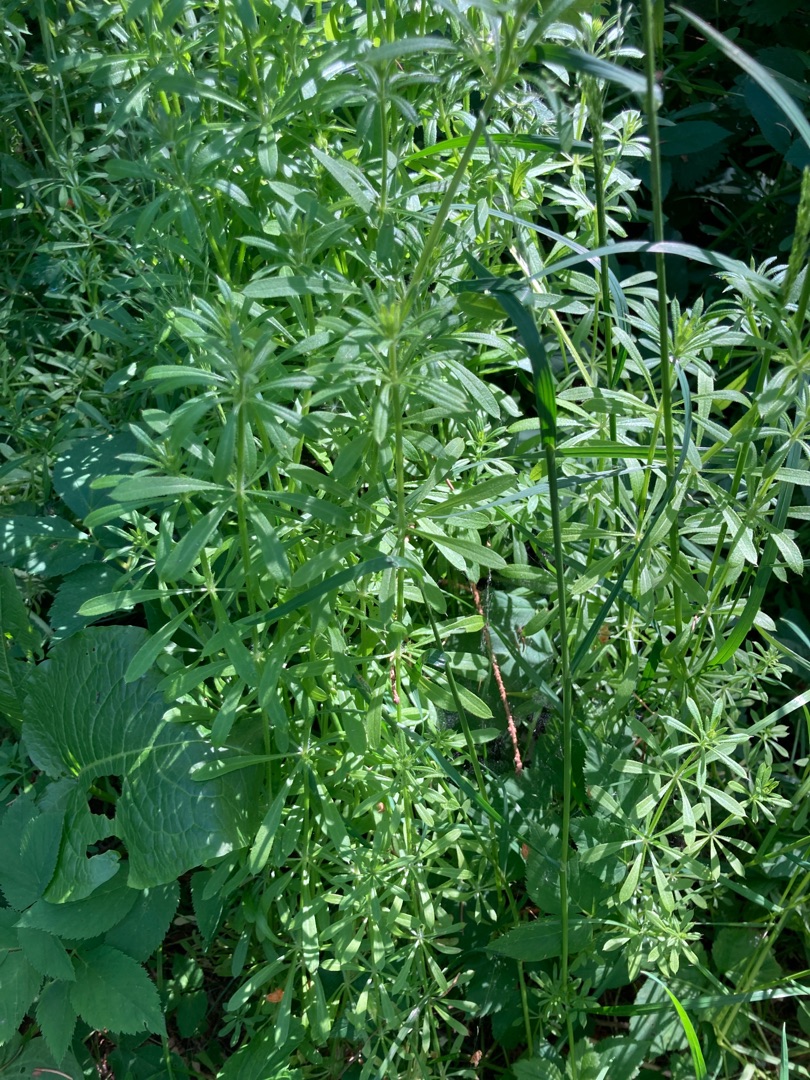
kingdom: Plantae
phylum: Tracheophyta
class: Magnoliopsida
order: Gentianales
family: Rubiaceae
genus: Galium
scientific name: Galium aparine
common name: Burre-snerre
